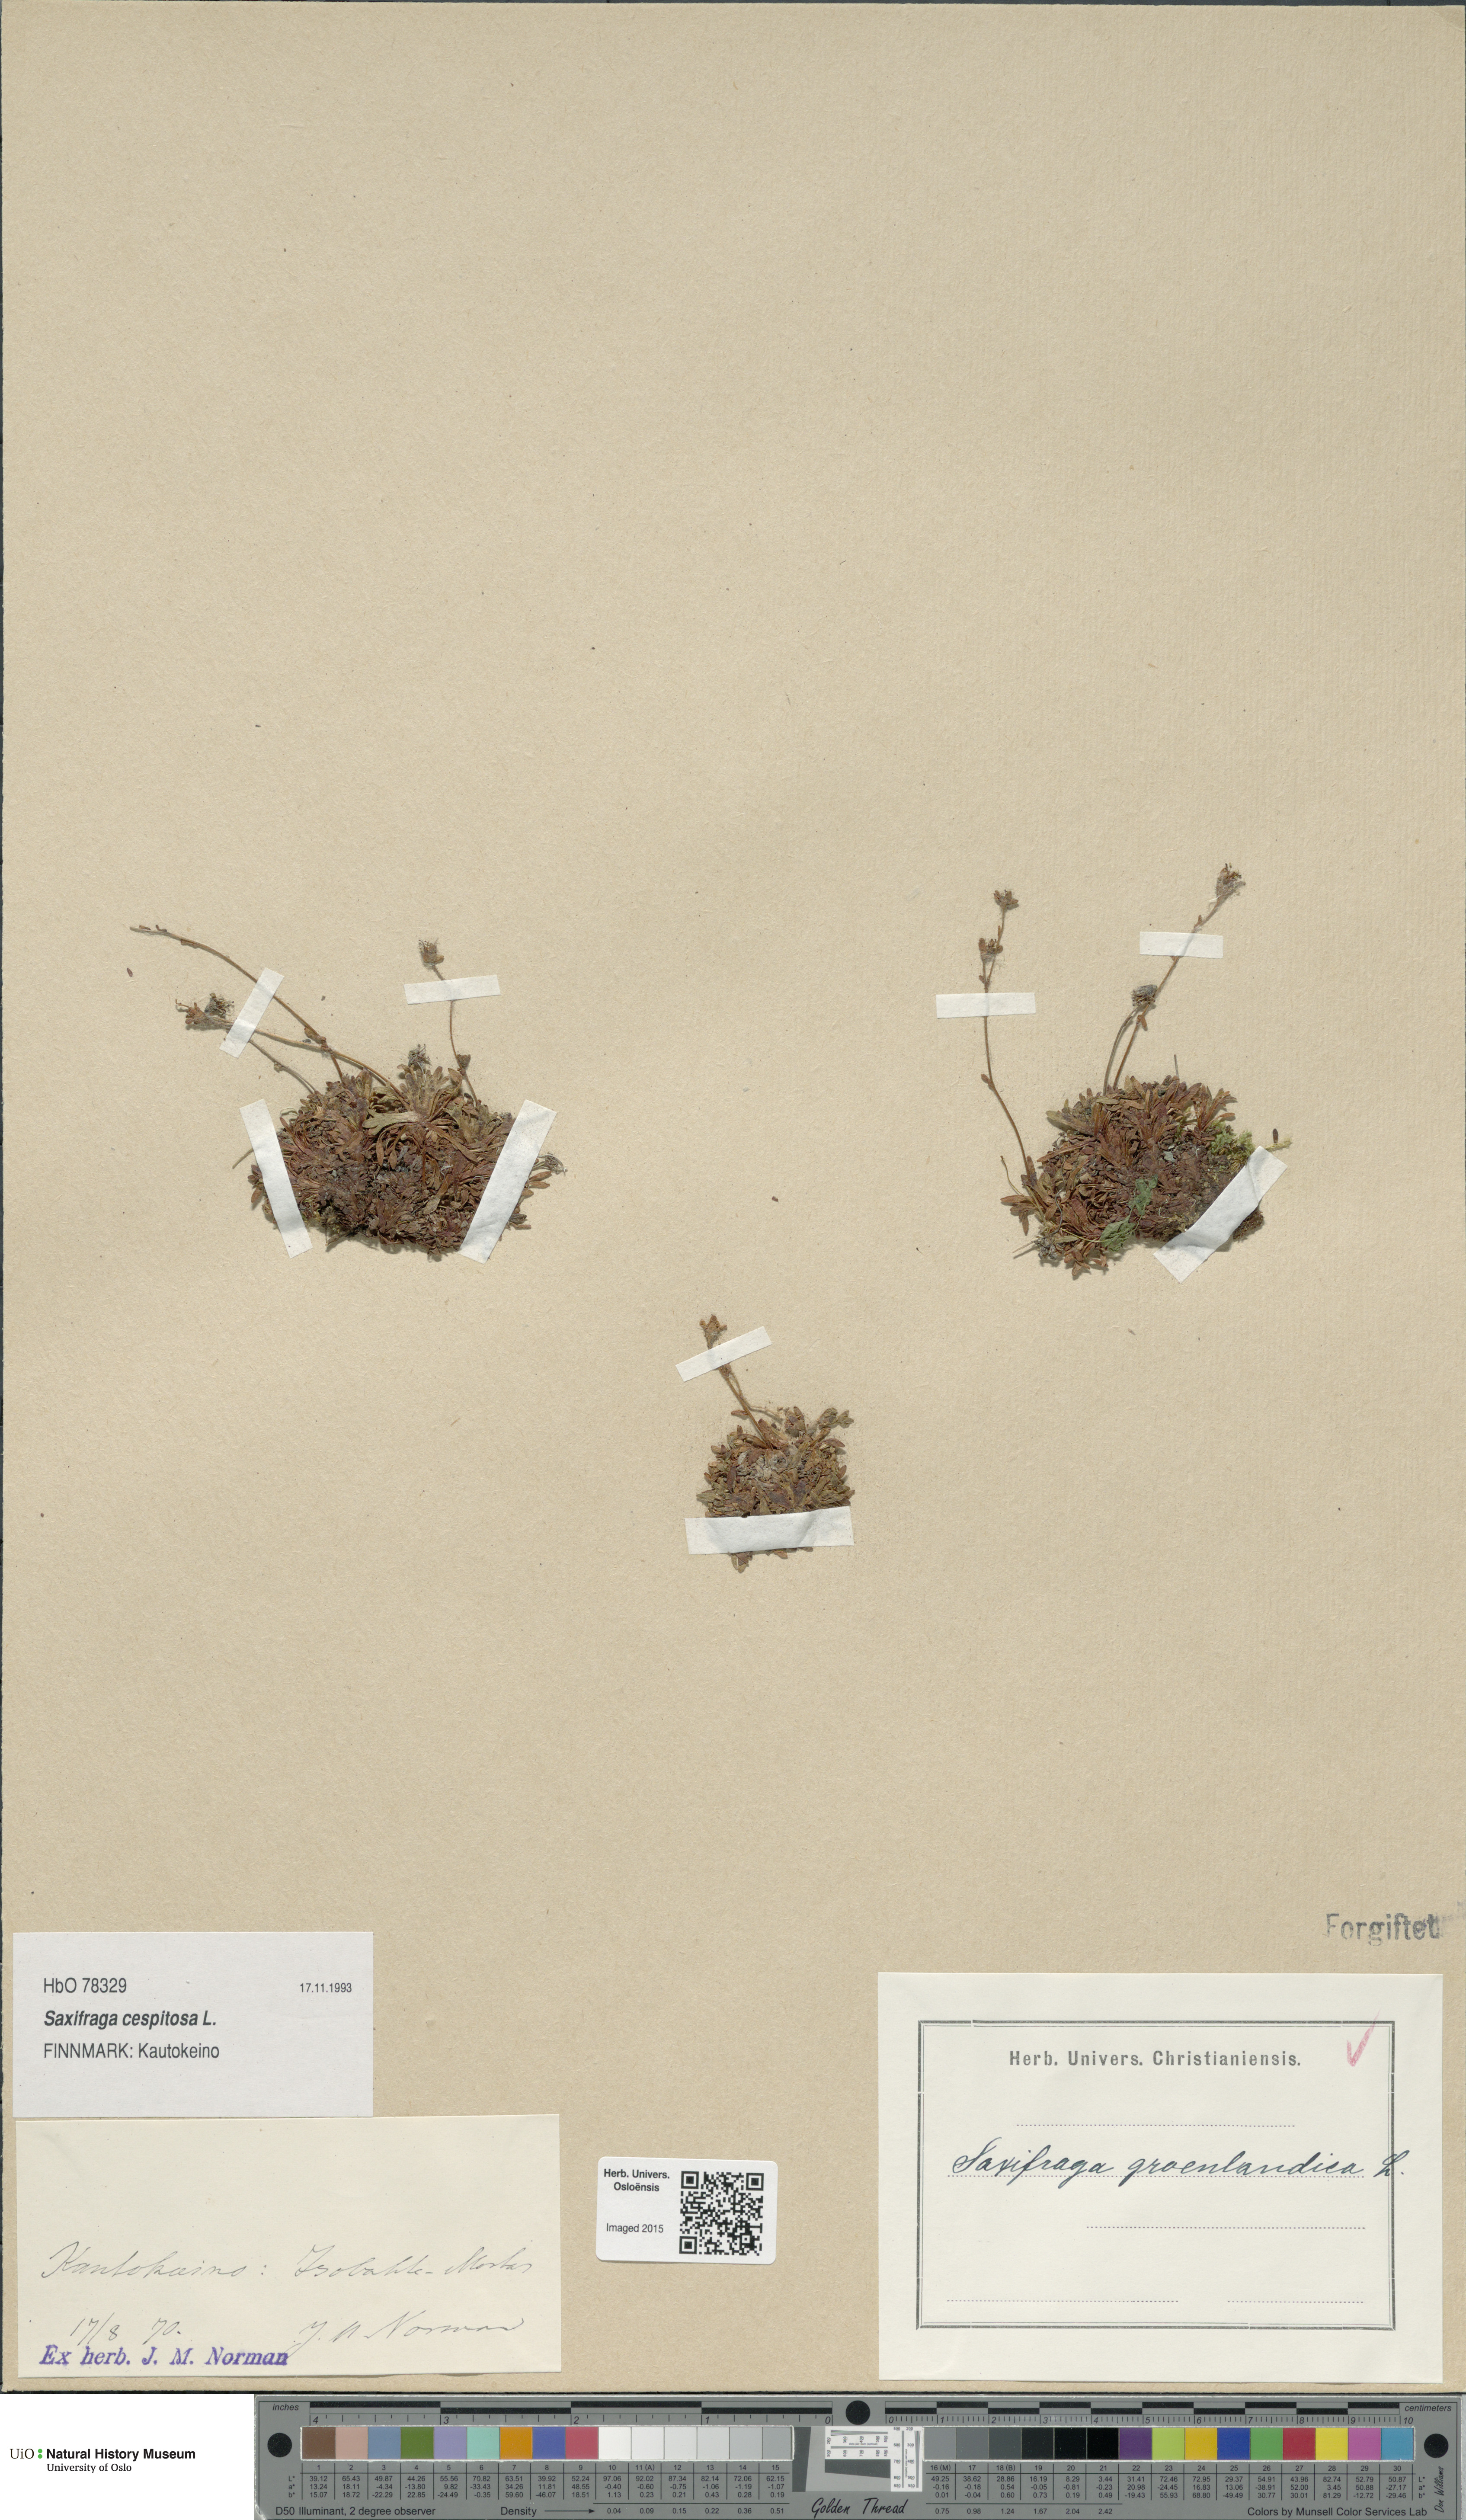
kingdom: Plantae
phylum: Tracheophyta
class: Magnoliopsida
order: Saxifragales
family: Saxifragaceae
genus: Saxifraga
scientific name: Saxifraga cespitosa
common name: Tufted saxifrage
